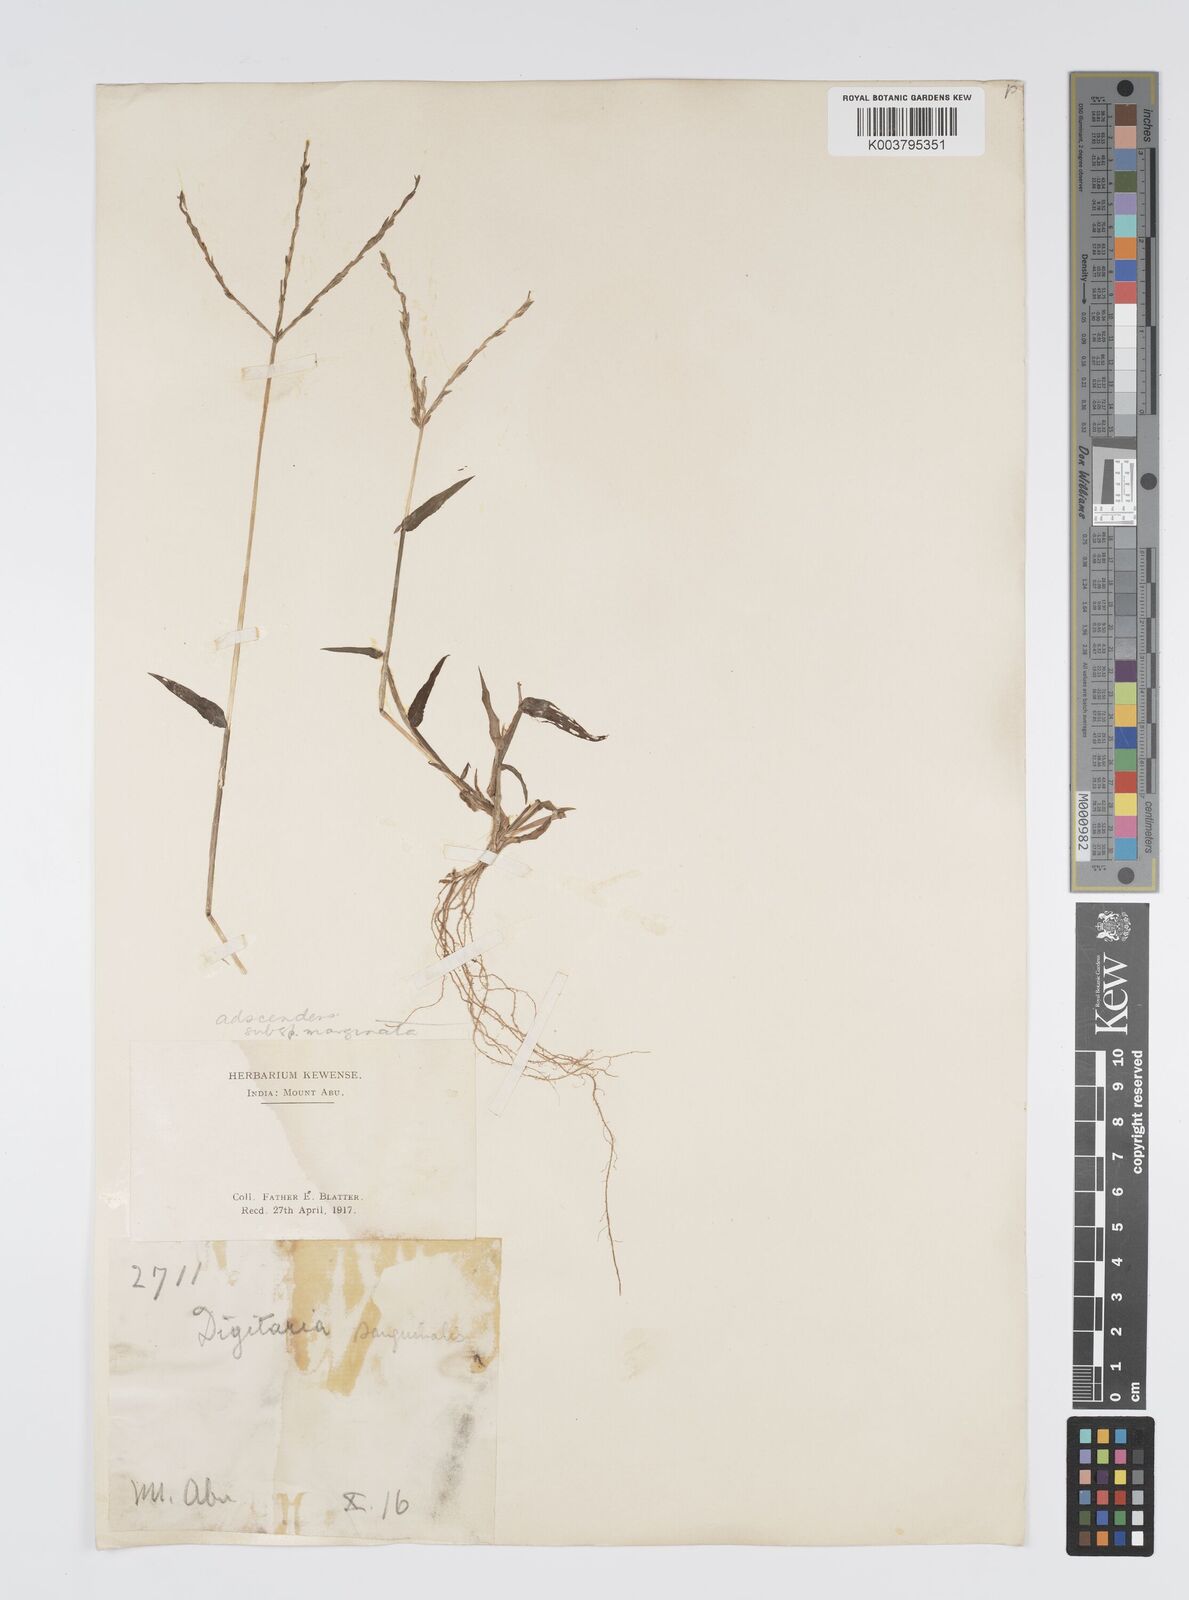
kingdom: Plantae
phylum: Tracheophyta
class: Liliopsida
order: Poales
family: Poaceae
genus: Digitaria
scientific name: Digitaria ciliaris
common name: Tropical finger-grass
